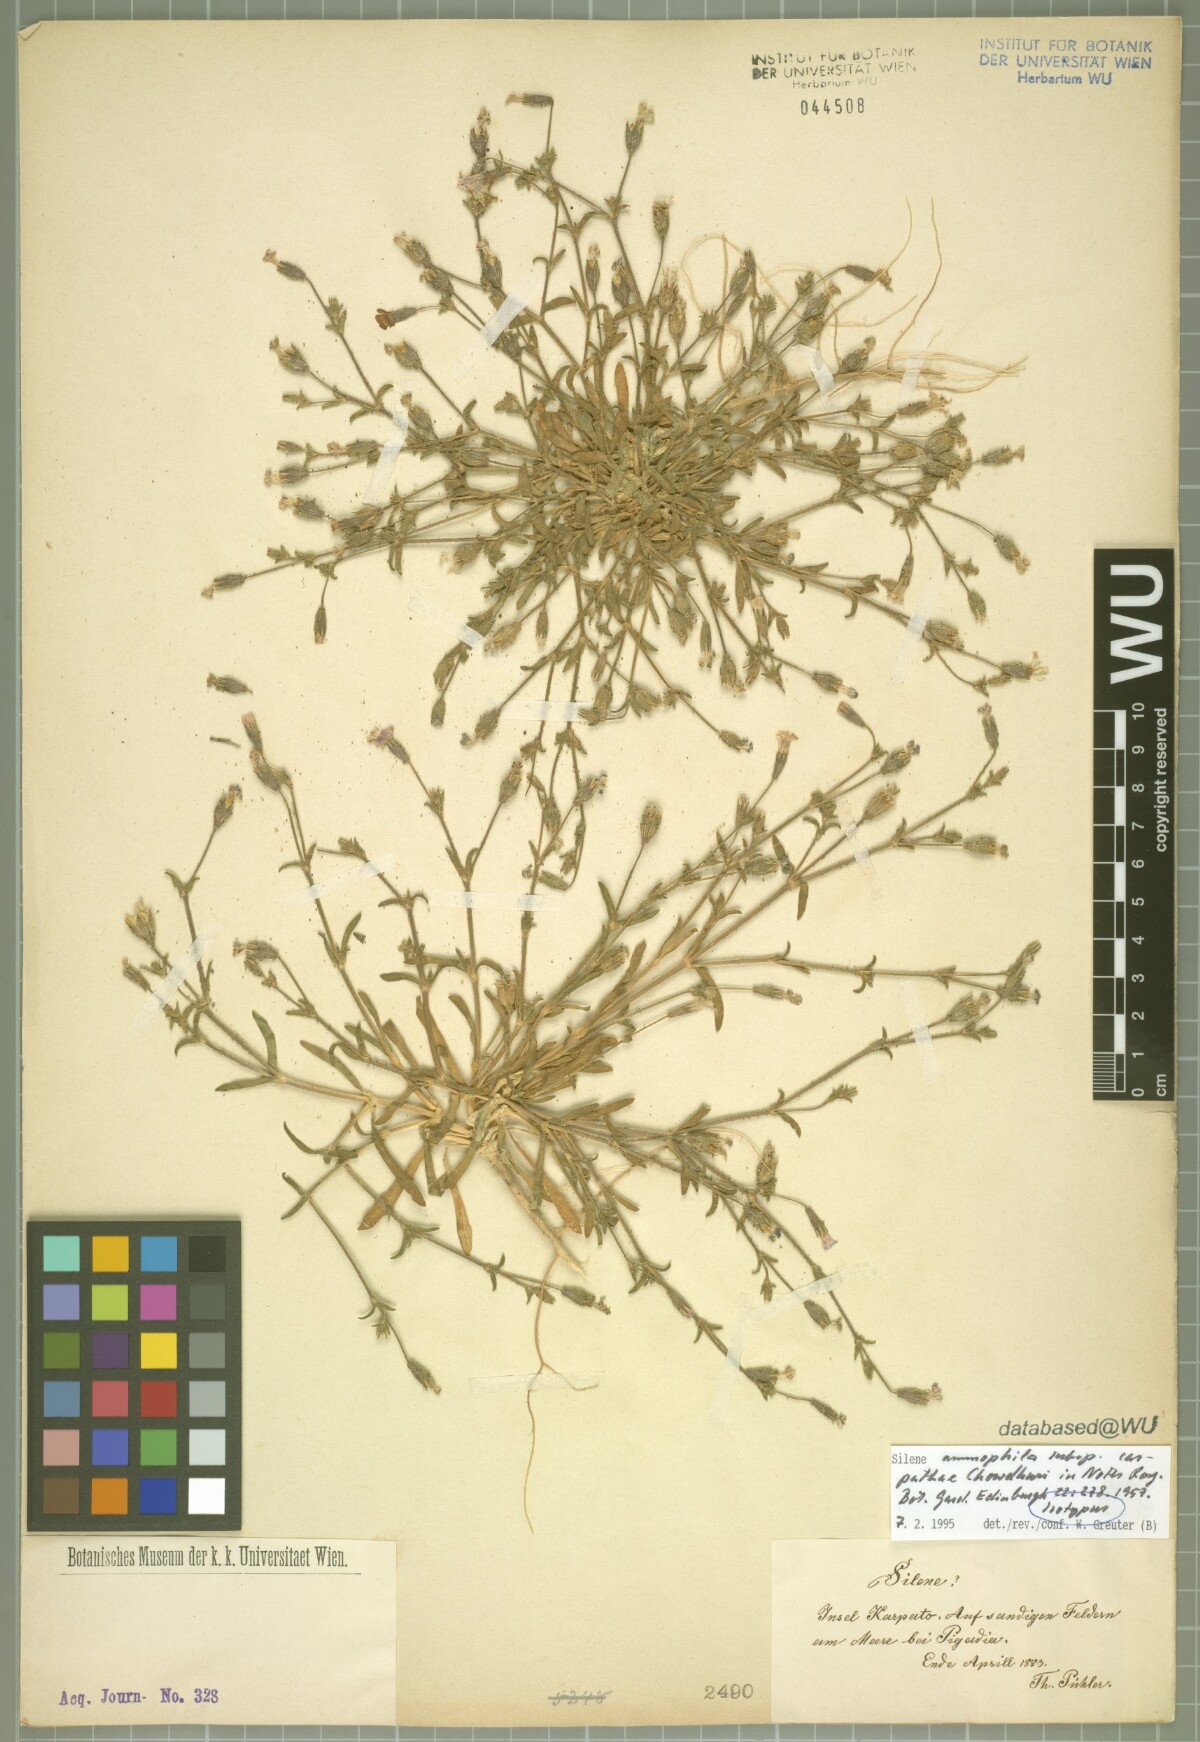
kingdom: Plantae
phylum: Tracheophyta
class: Magnoliopsida
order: Caryophyllales
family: Caryophyllaceae
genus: Silene
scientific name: Silene ammophila
